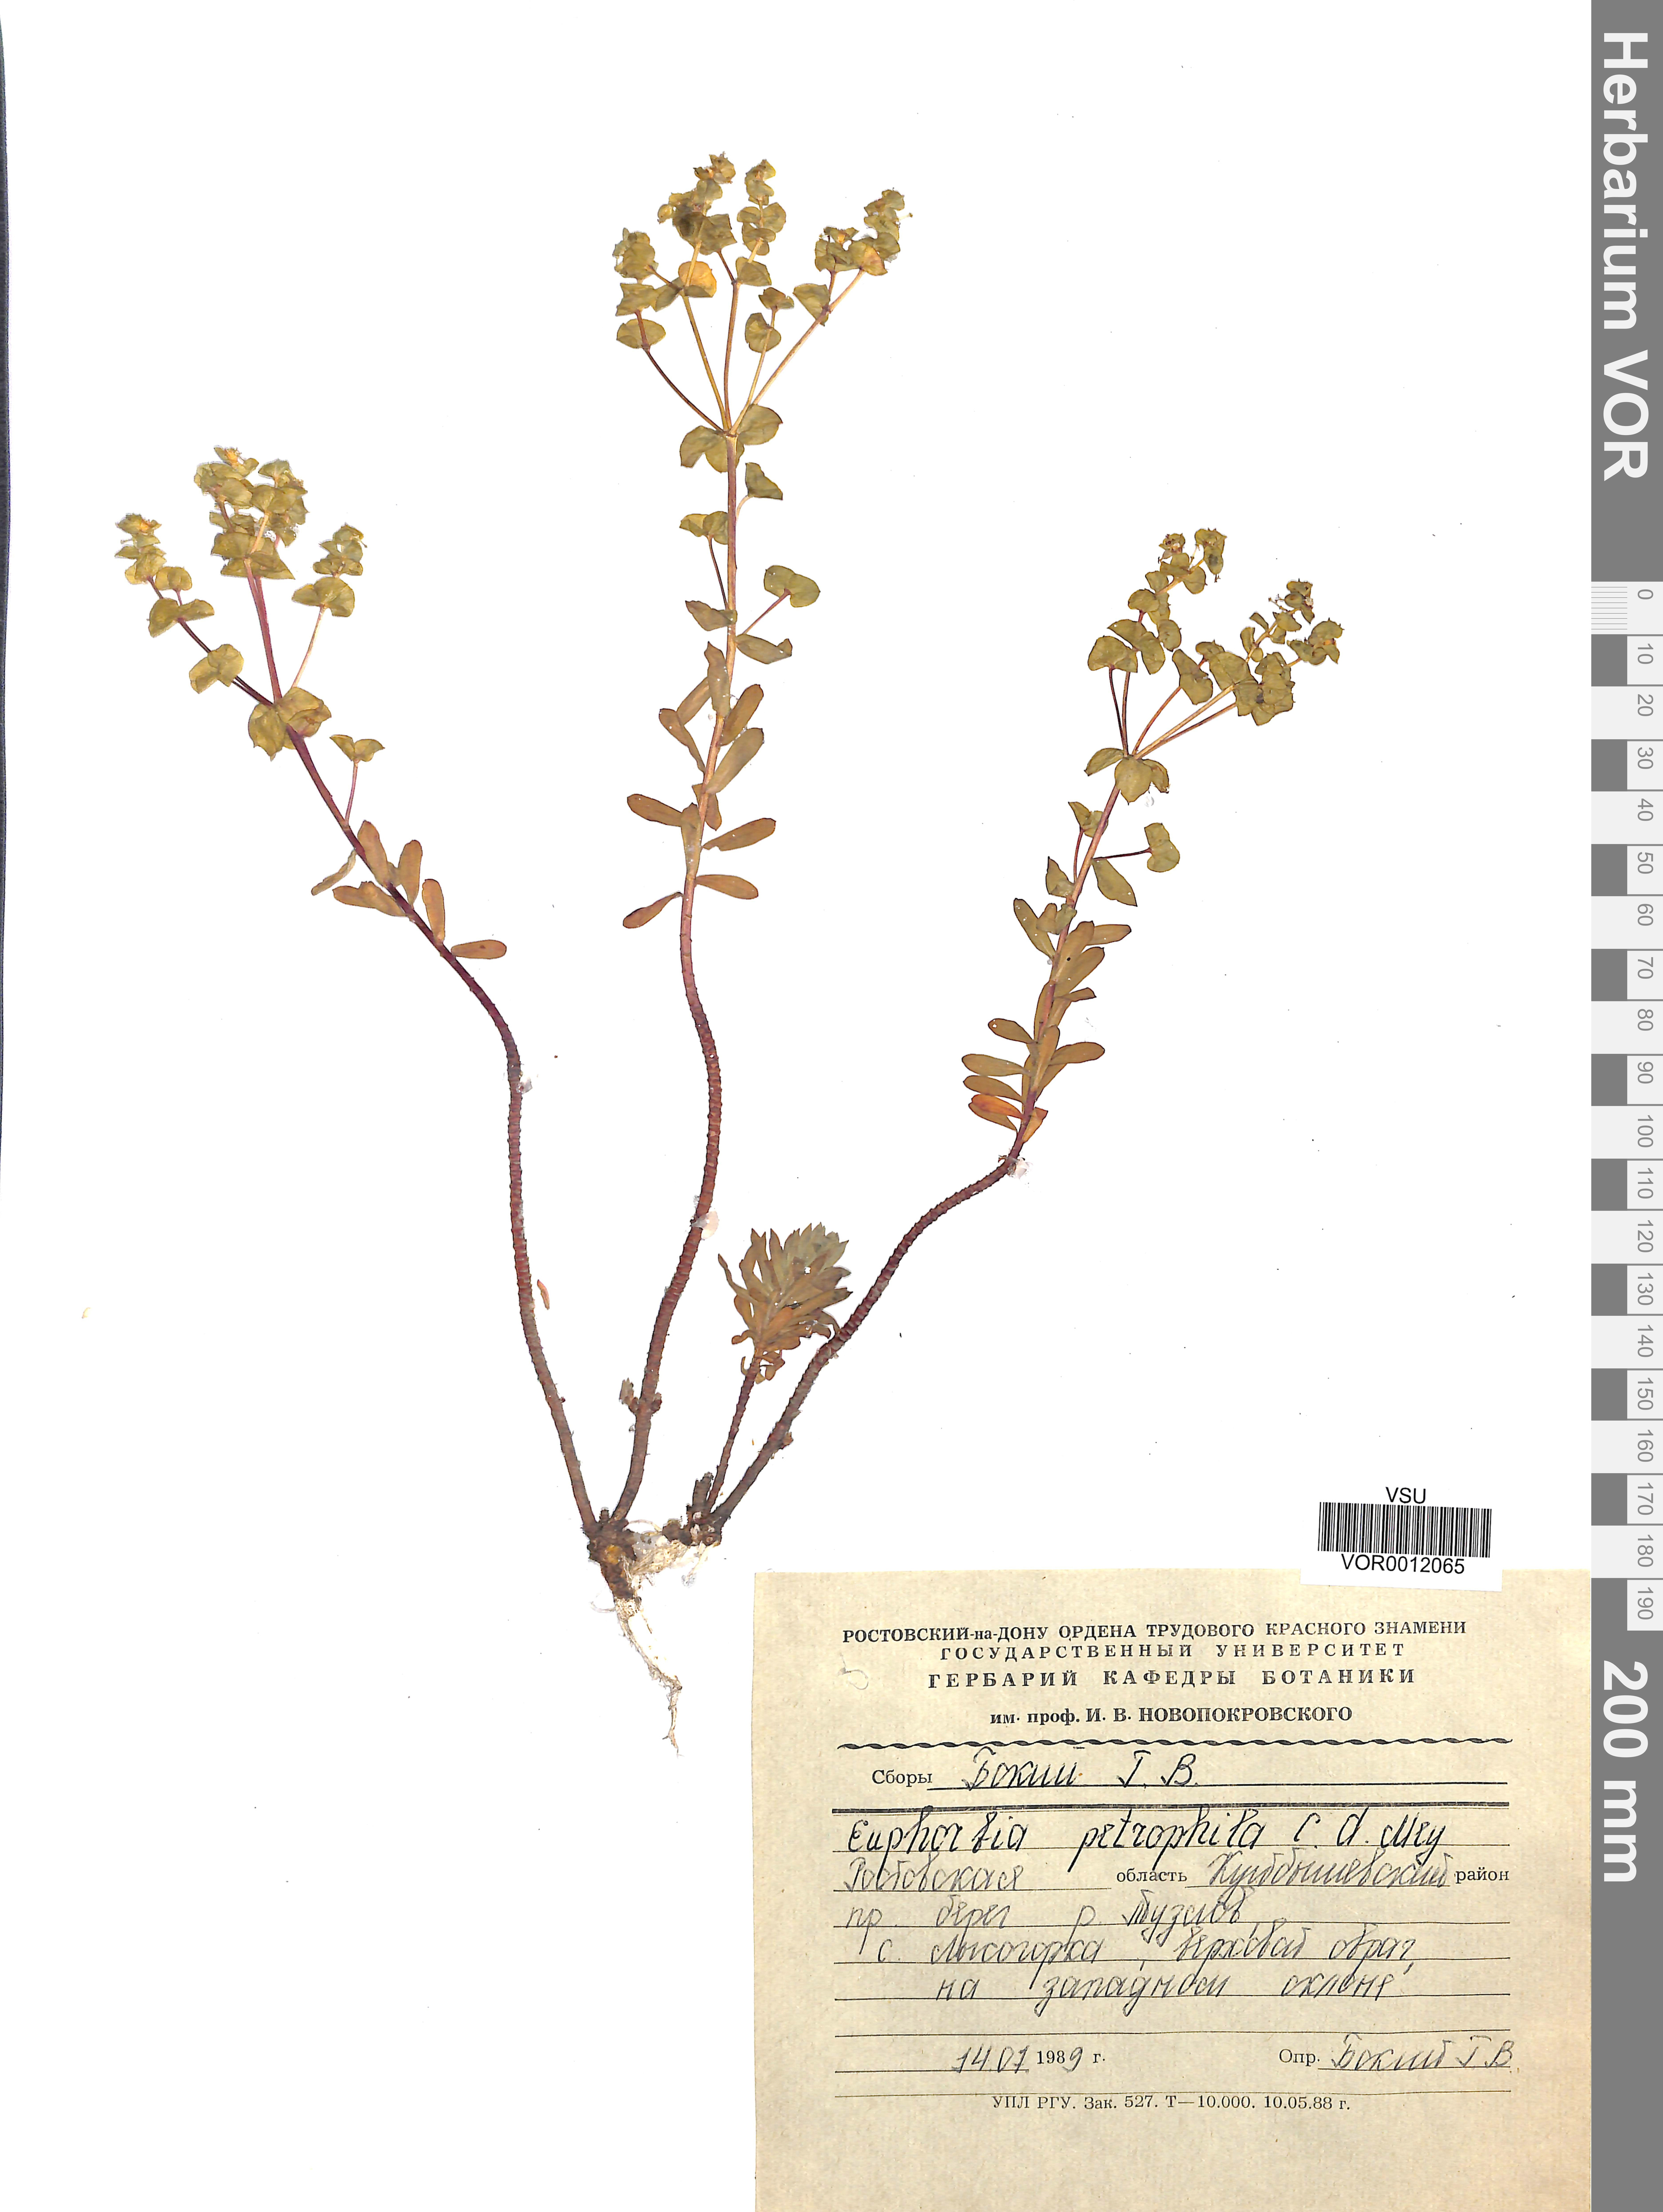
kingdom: Plantae
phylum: Tracheophyta
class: Magnoliopsida
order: Malpighiales
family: Euphorbiaceae
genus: Euphorbia
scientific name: Euphorbia petrophila
